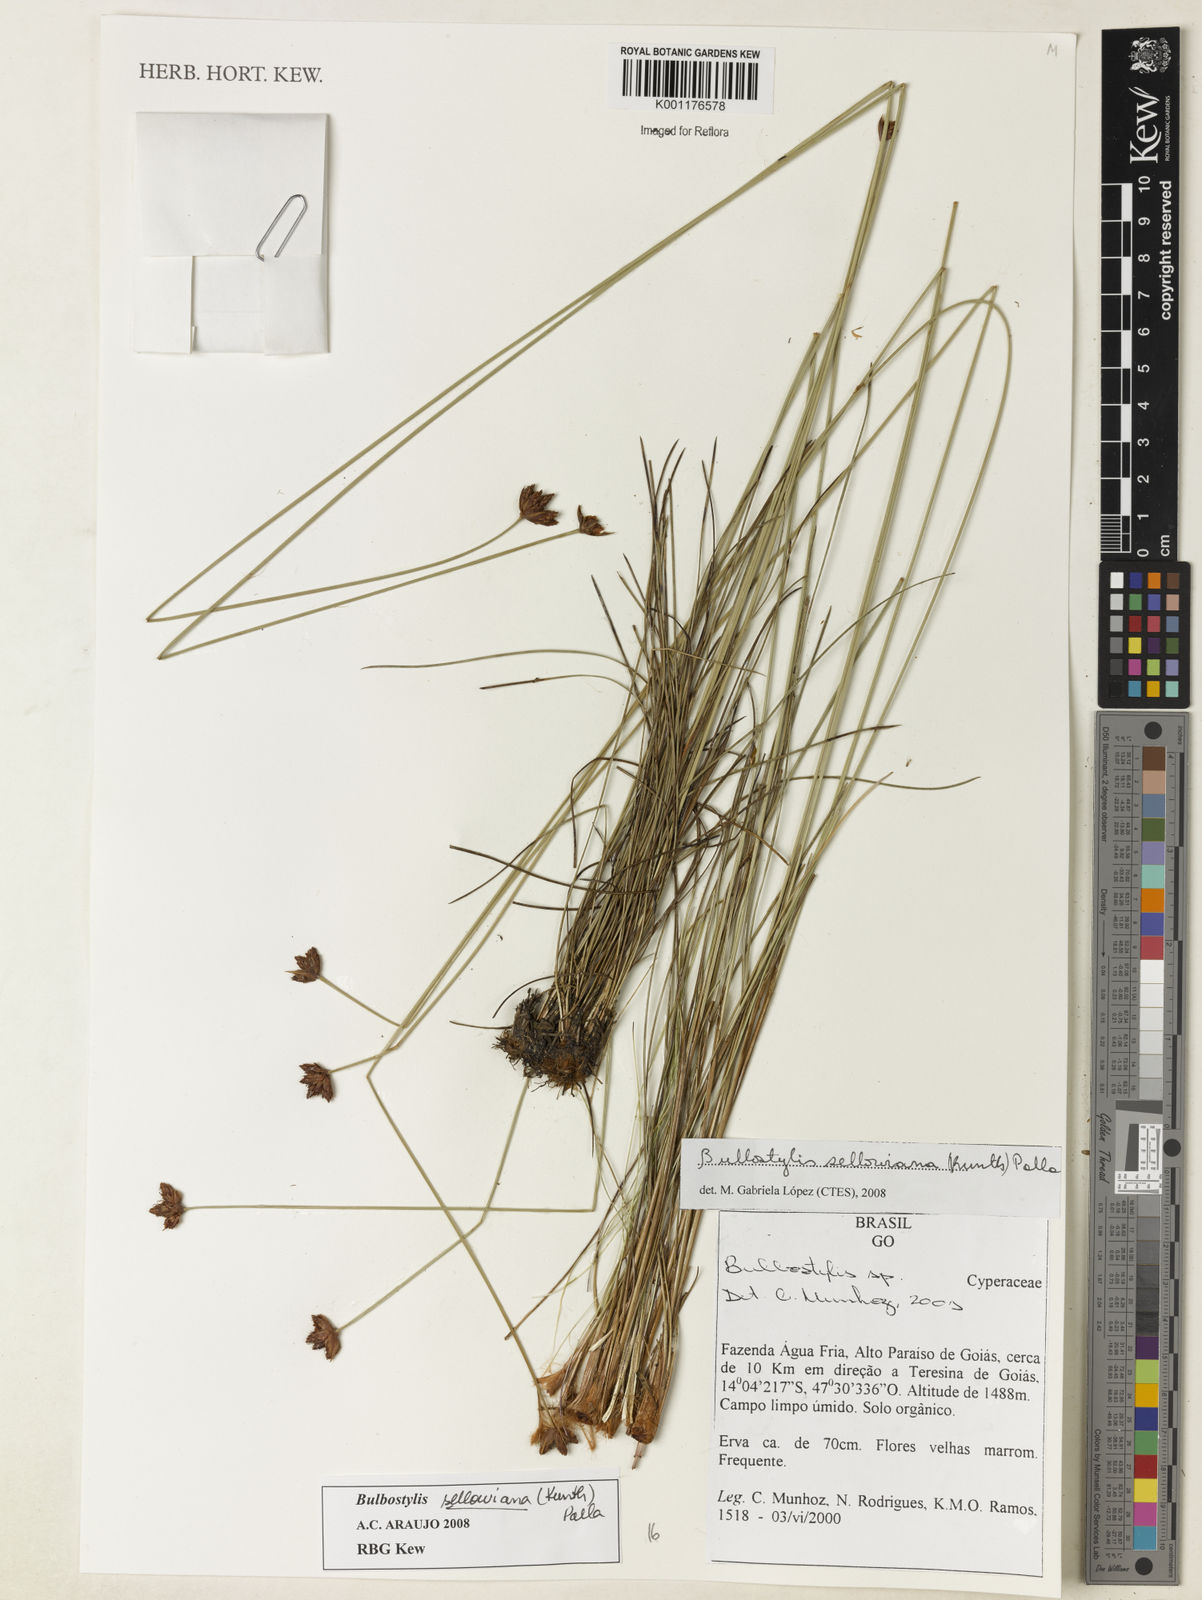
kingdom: Plantae
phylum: Tracheophyta
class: Liliopsida
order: Poales
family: Cyperaceae
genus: Bulbostylis
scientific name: Bulbostylis sellowiana
